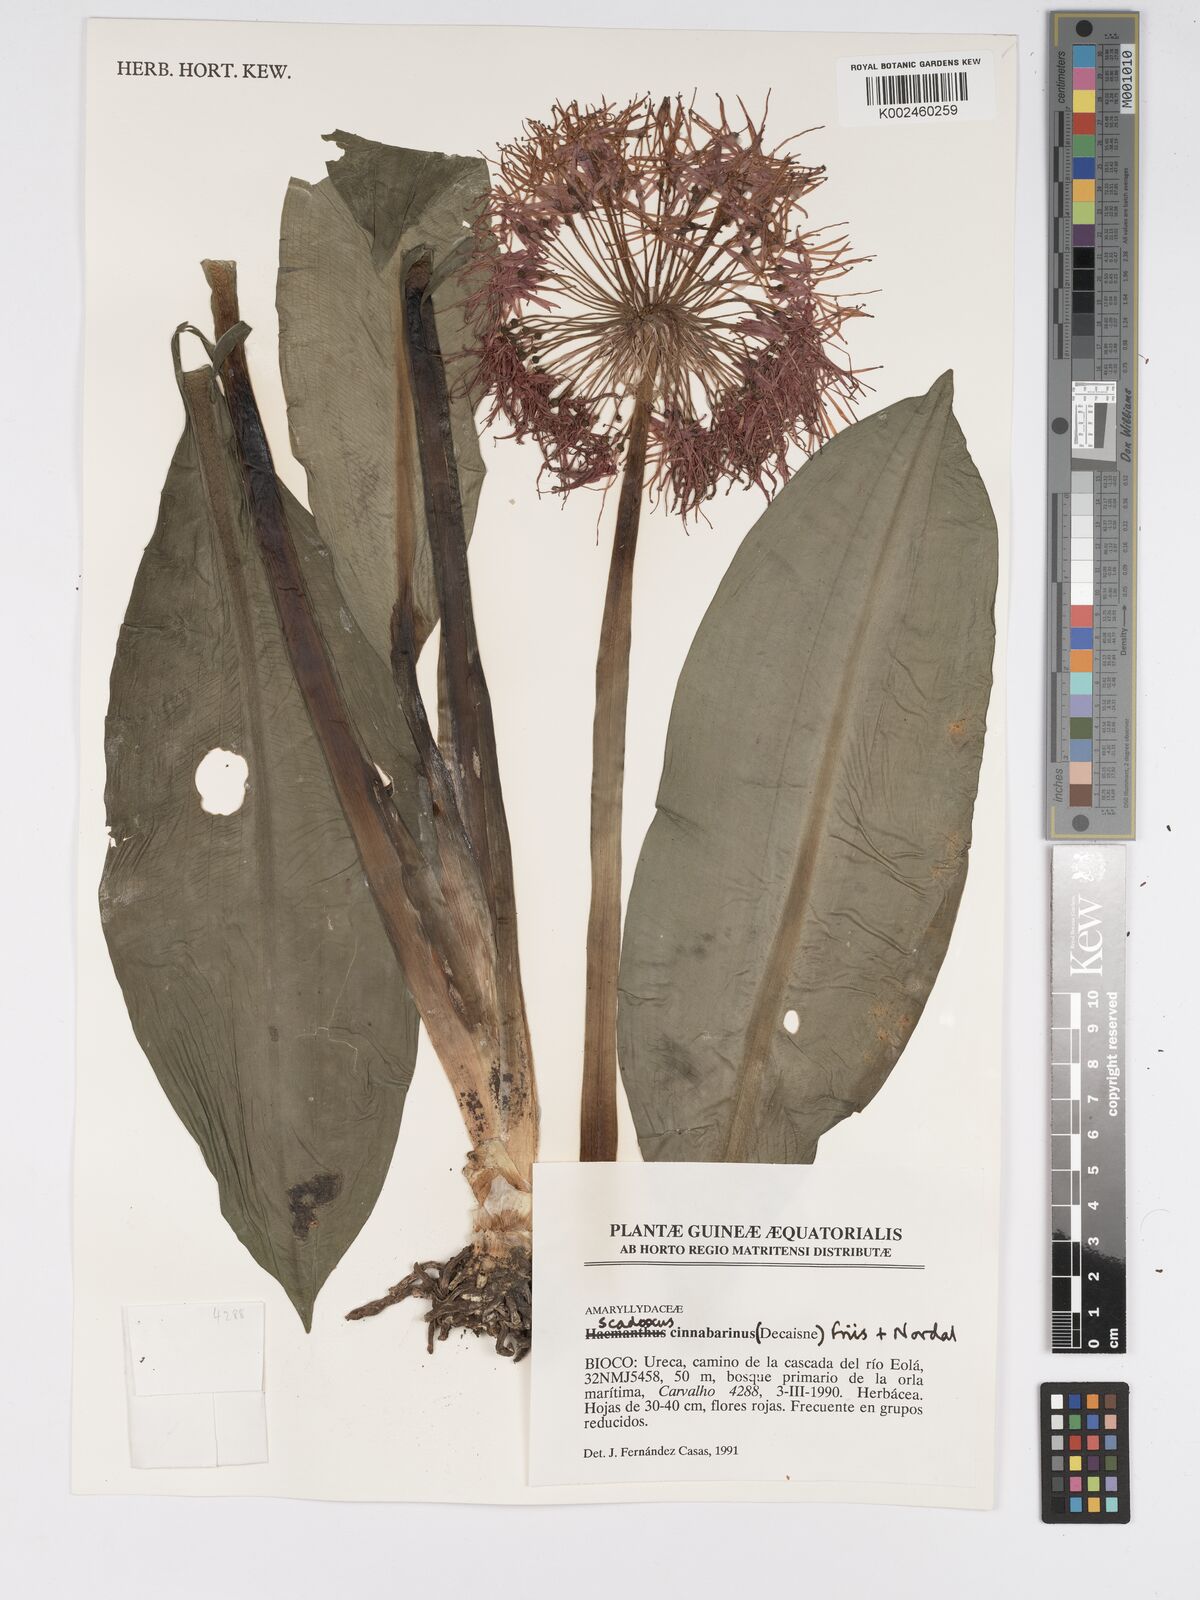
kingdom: Plantae
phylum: Tracheophyta
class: Liliopsida
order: Asparagales
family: Amaryllidaceae
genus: Scadoxus
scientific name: Scadoxus cinnabarinus
